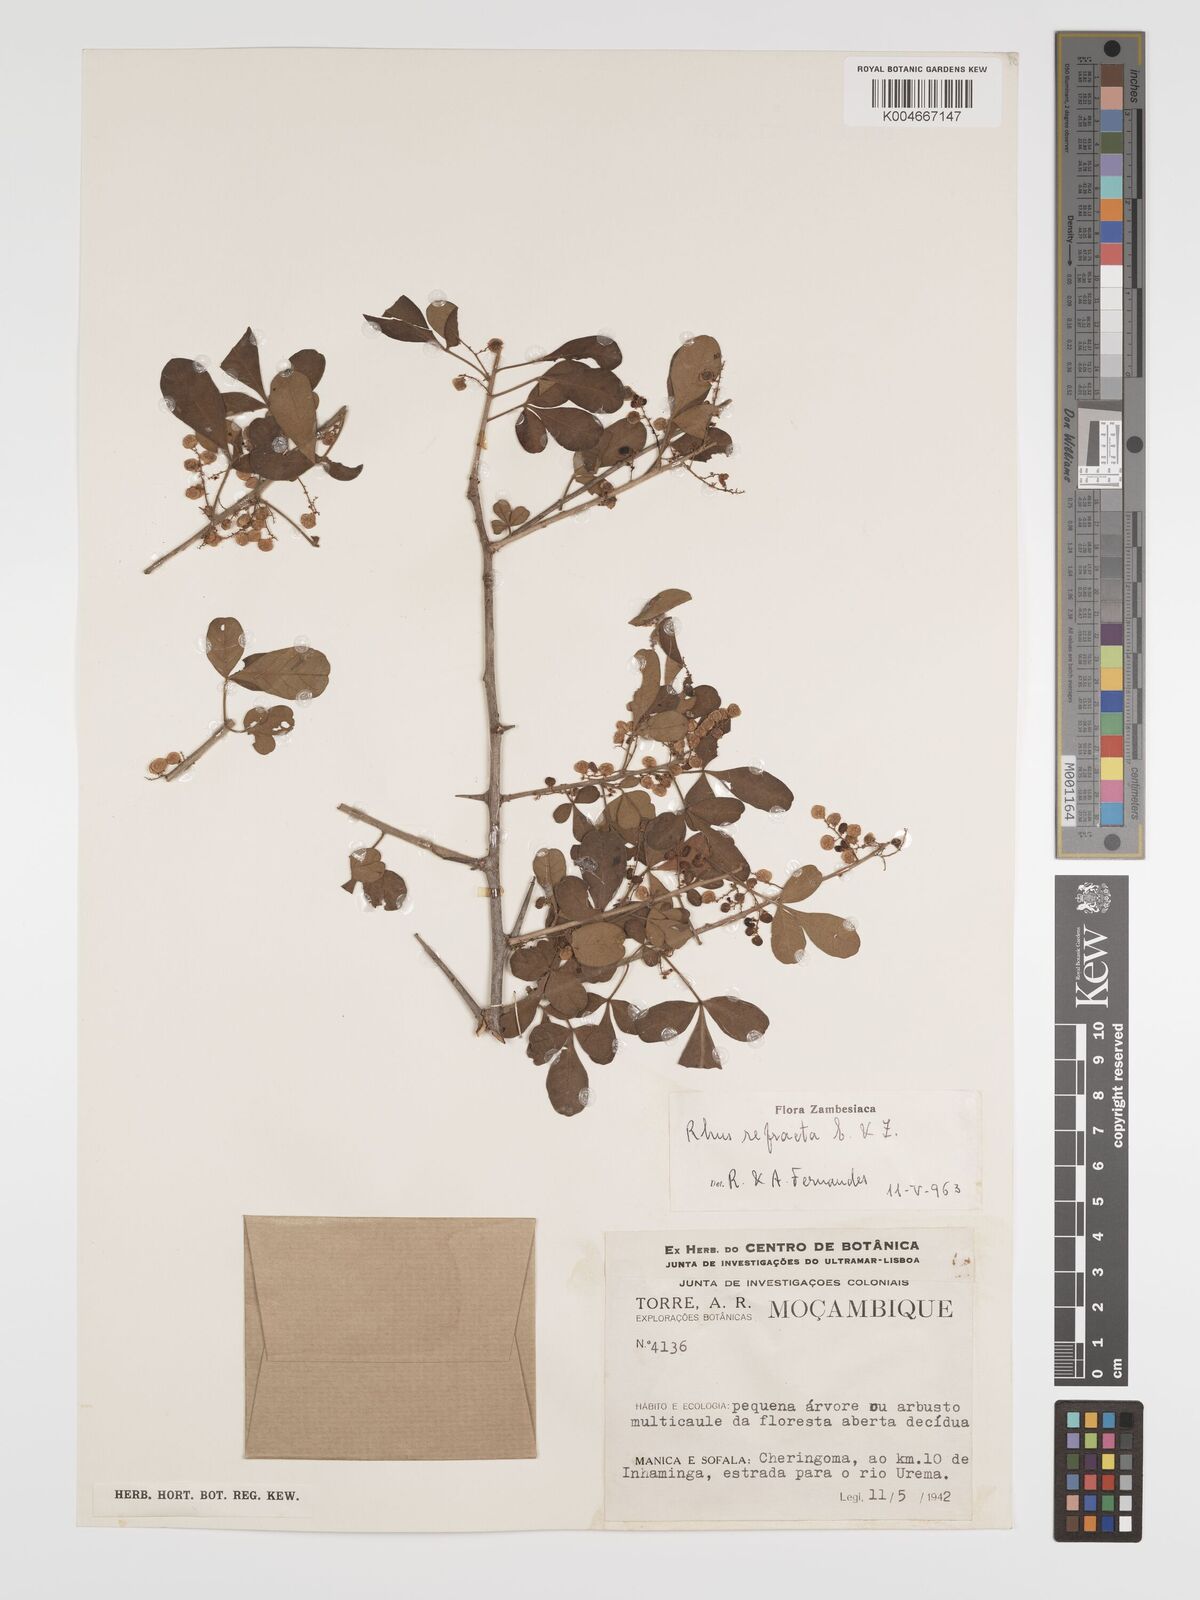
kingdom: Plantae
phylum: Tracheophyta
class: Magnoliopsida
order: Sapindales
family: Anacardiaceae
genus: Searsia
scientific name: Searsia refracta
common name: Thorny crow-berry
